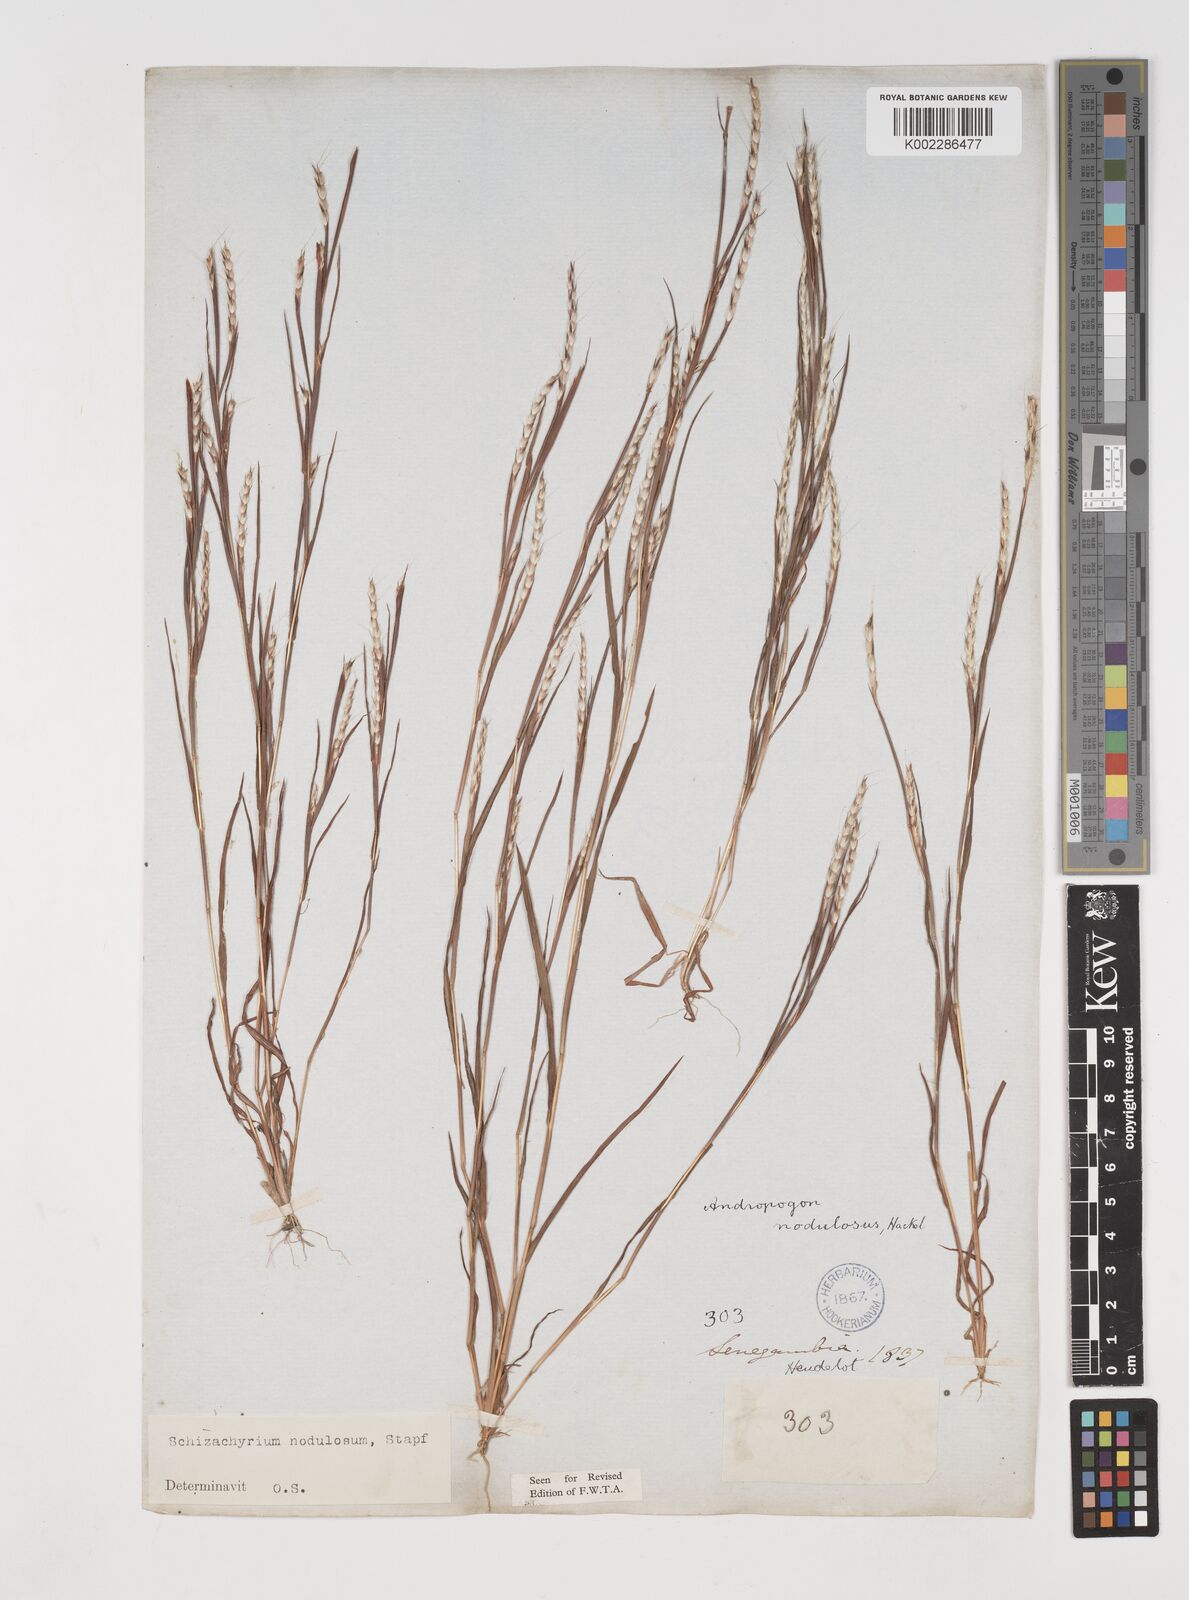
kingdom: Plantae
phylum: Tracheophyta
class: Liliopsida
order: Poales
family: Poaceae
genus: Schizachyrium
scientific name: Schizachyrium nodulosum
